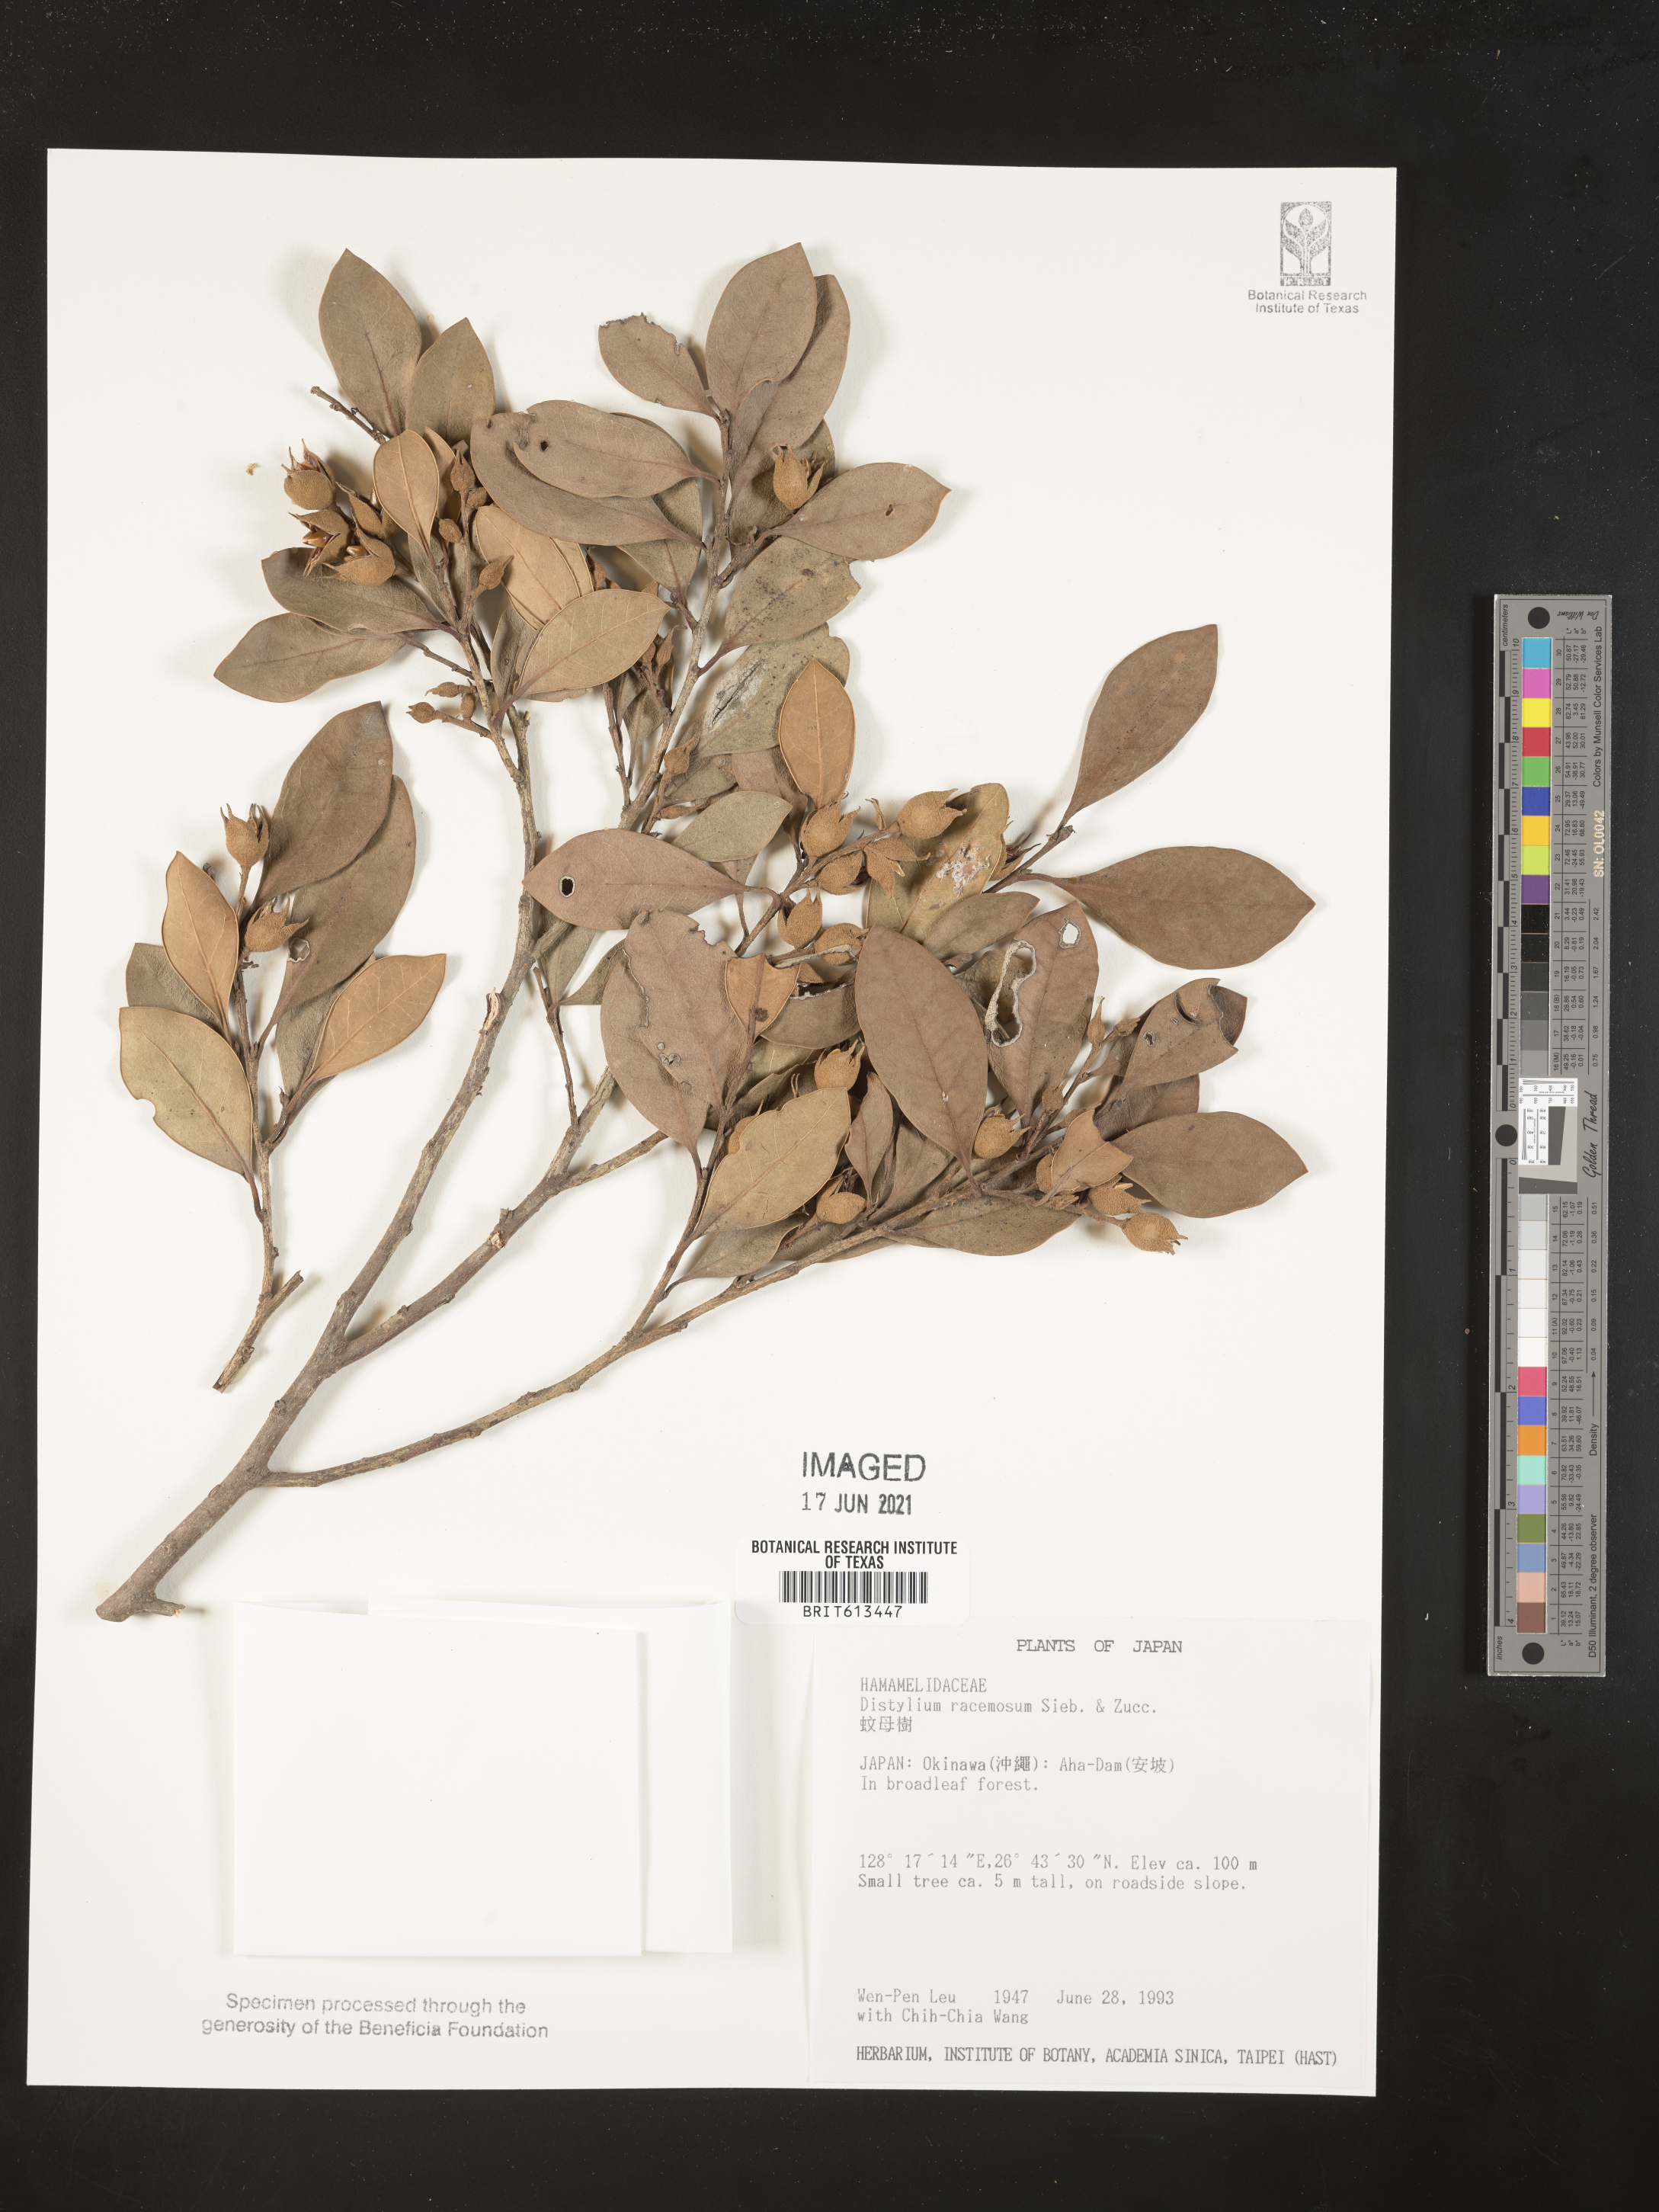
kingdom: Plantae
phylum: Tracheophyta
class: Magnoliopsida
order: Saxifragales
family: Hamamelidaceae
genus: Distylium
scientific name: Distylium racemosum
